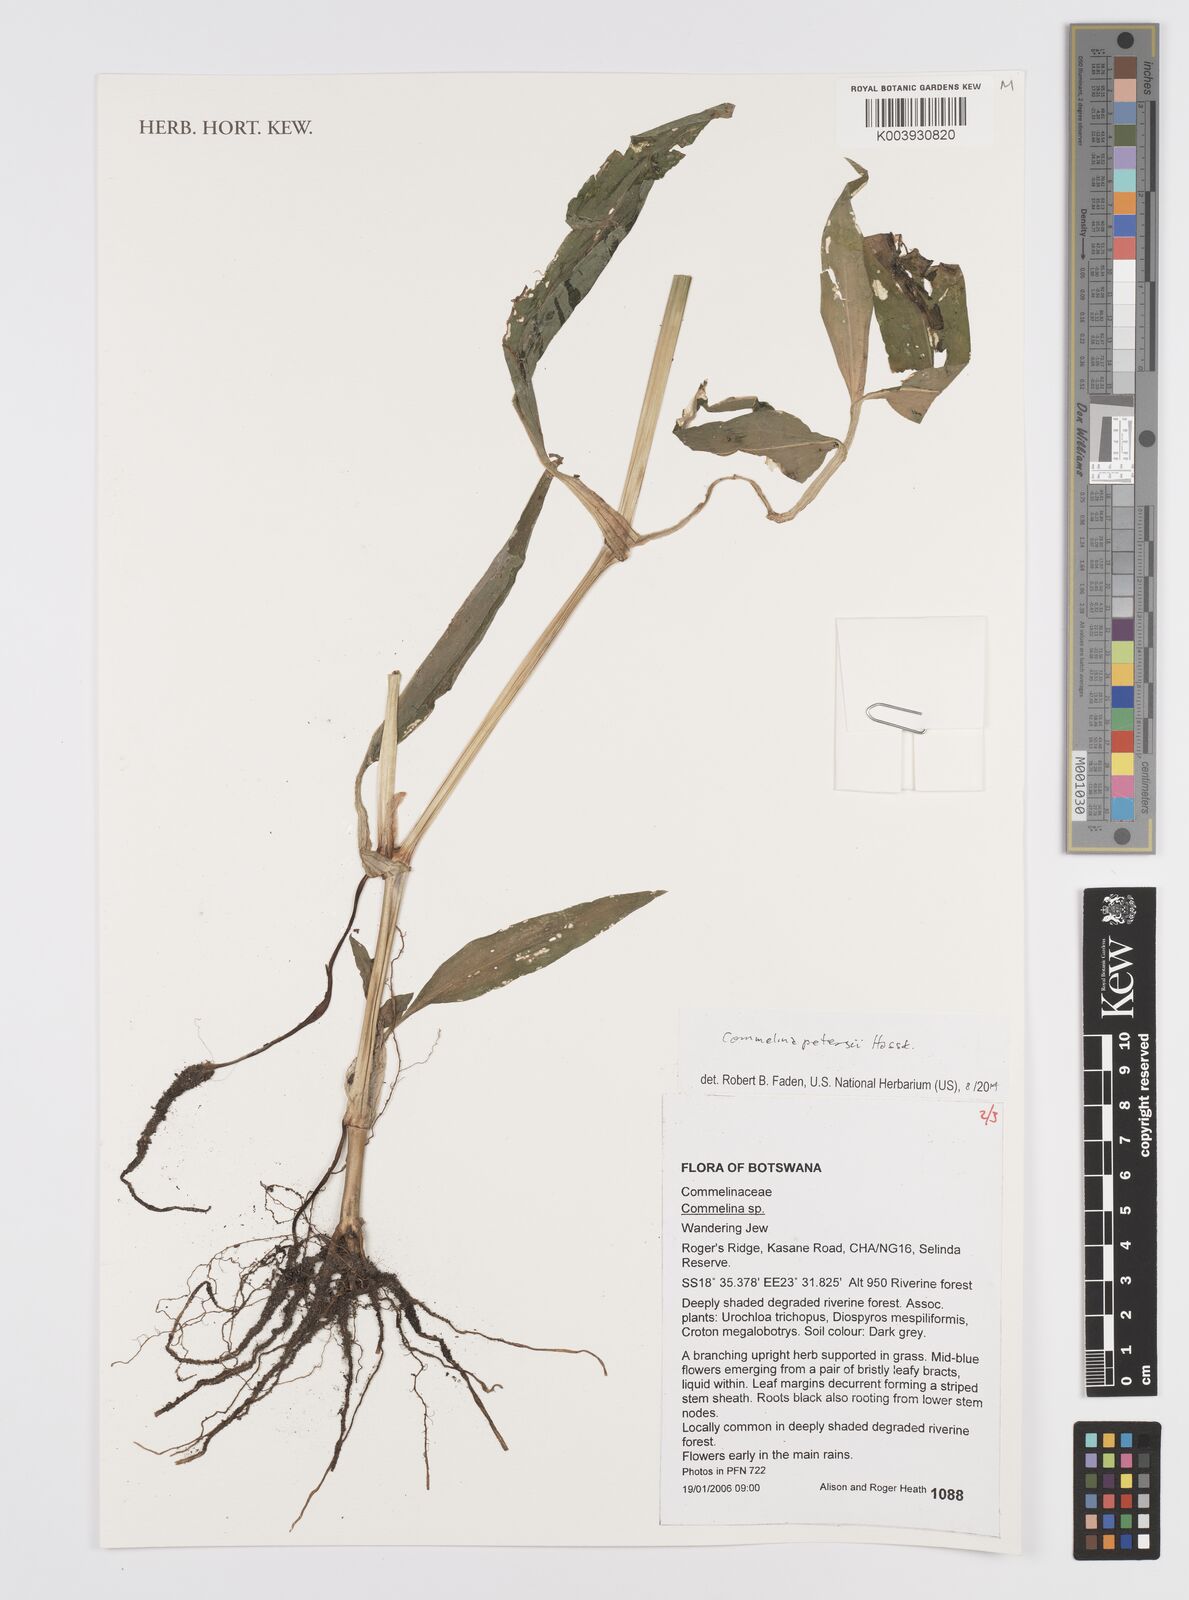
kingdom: Plantae
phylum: Tracheophyta
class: Liliopsida
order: Commelinales
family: Commelinaceae
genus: Commelina
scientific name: Commelina petersii
